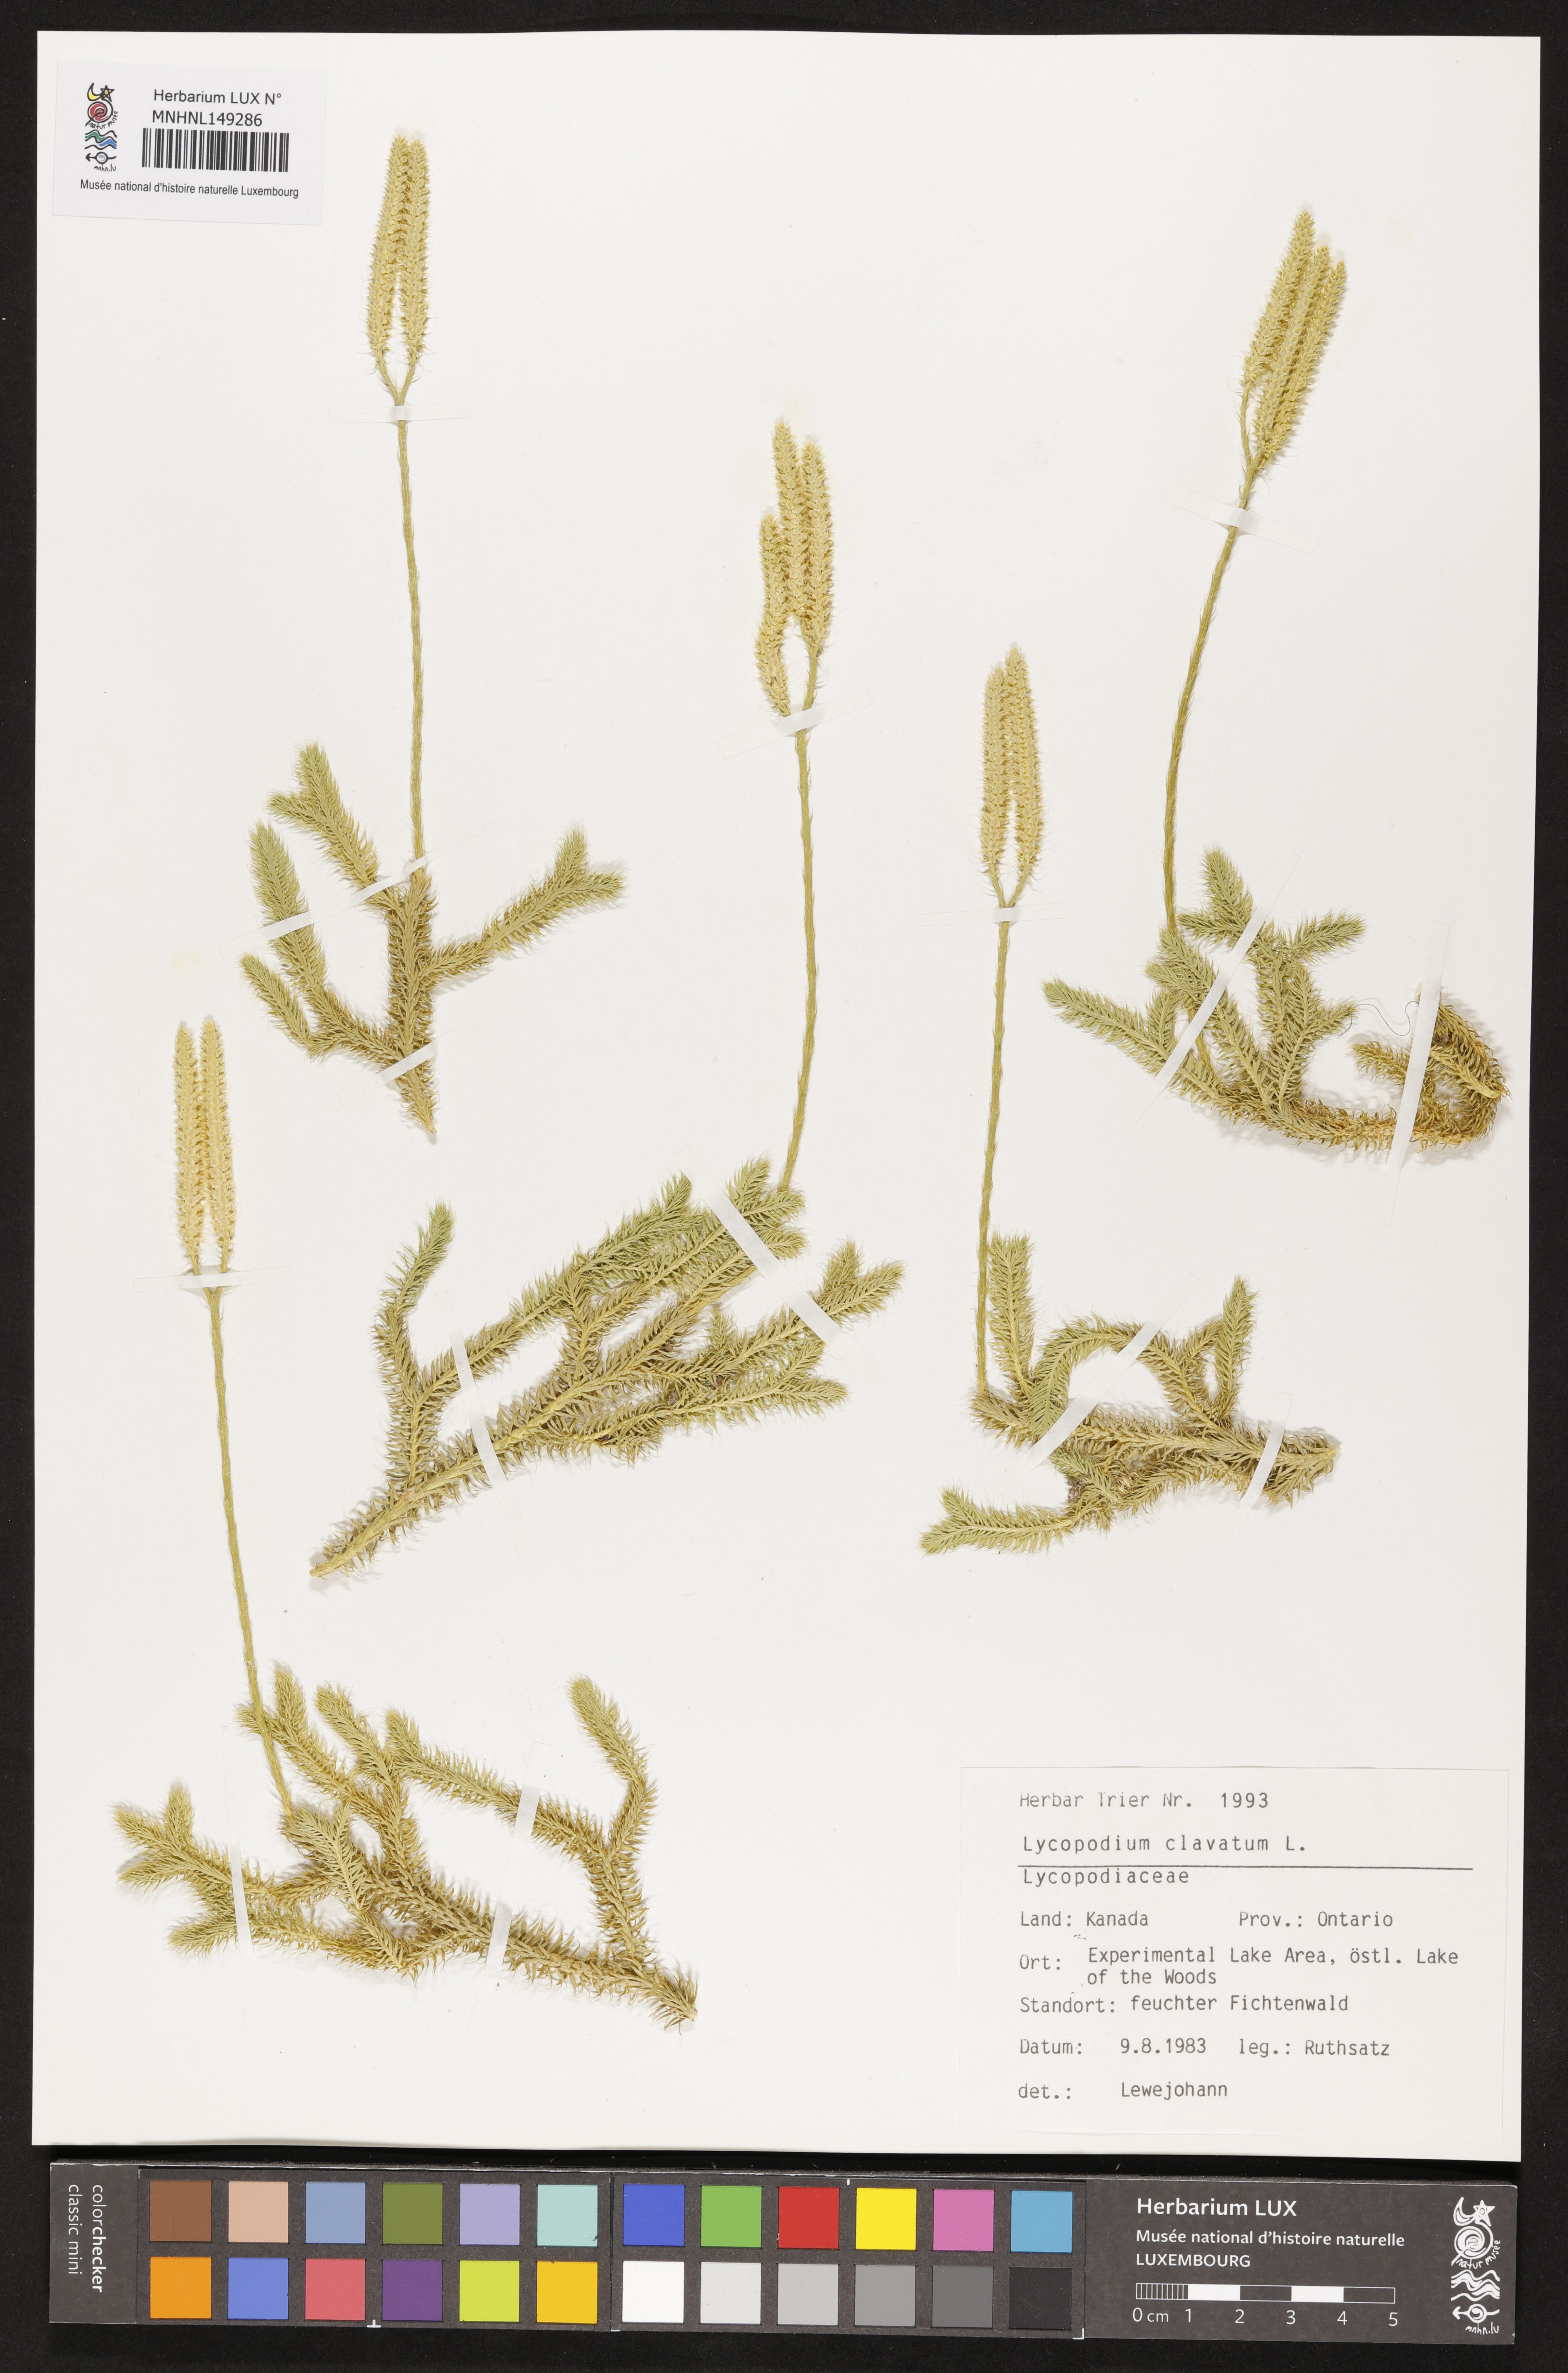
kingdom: Plantae
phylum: Tracheophyta
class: Lycopodiopsida
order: Lycopodiales
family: Lycopodiaceae
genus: Lycopodium
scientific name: Lycopodium clavatum
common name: Stag's-horn clubmoss
